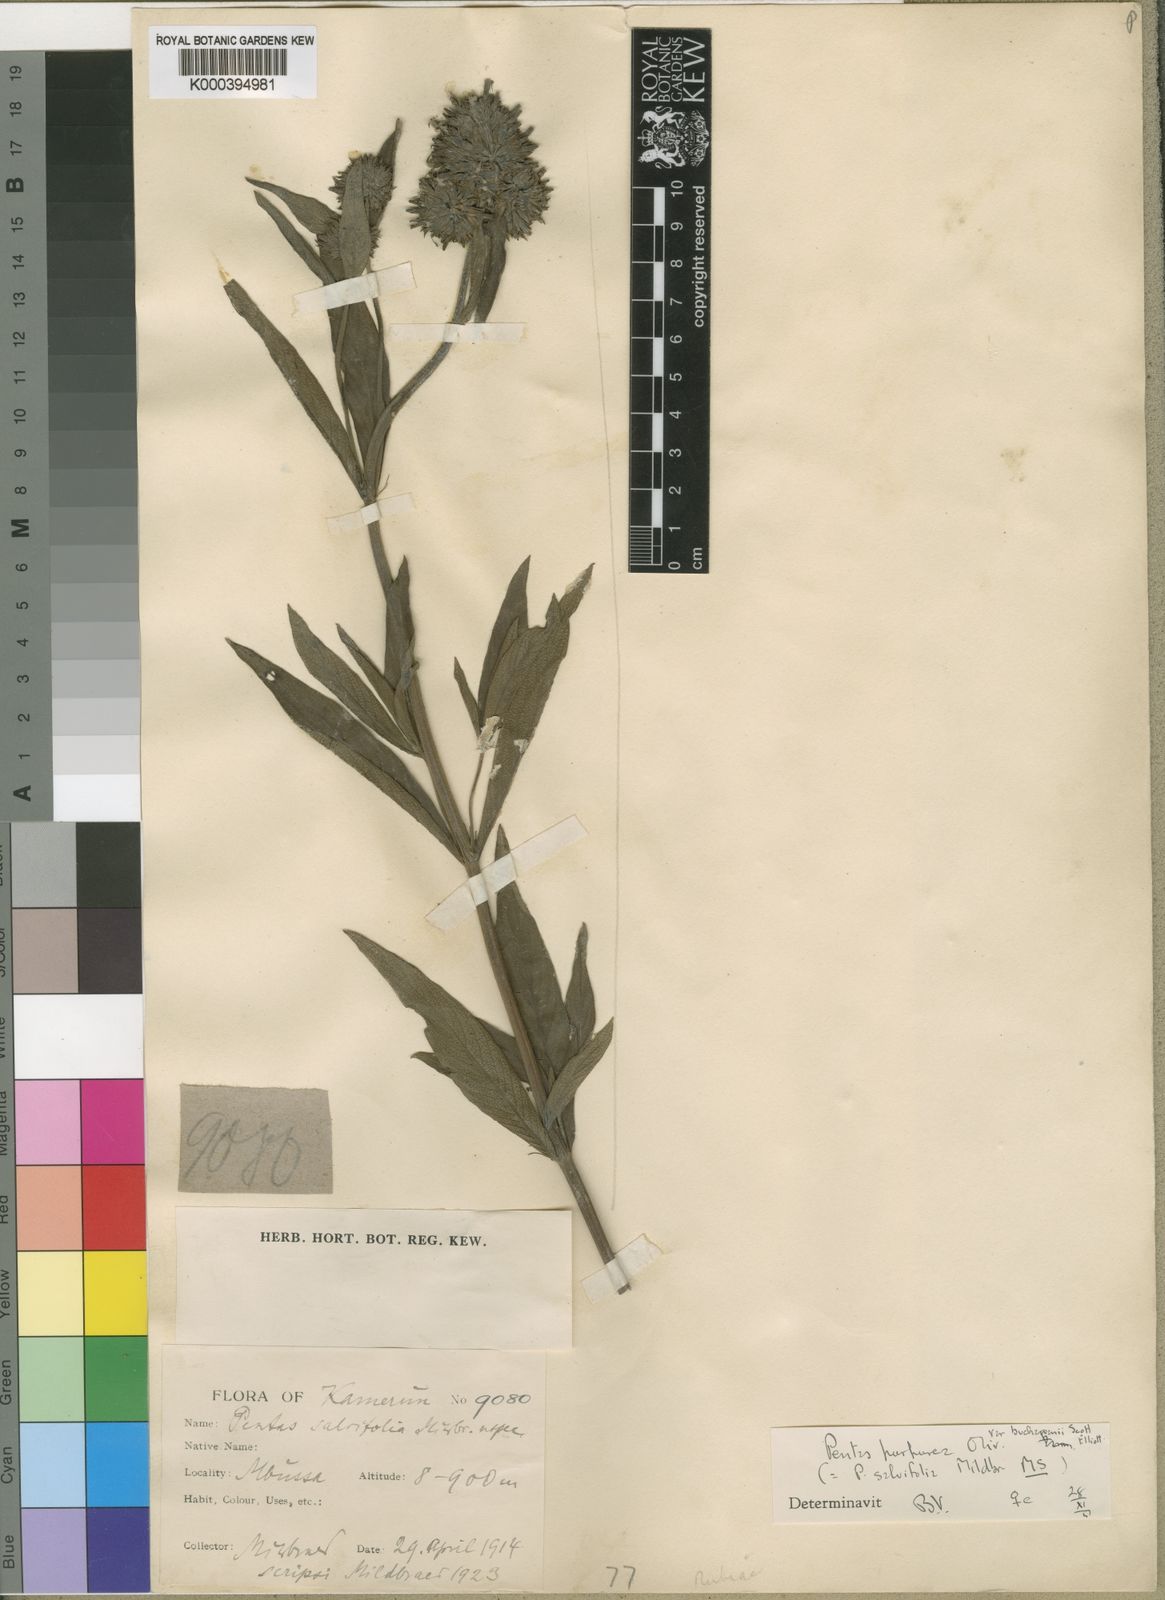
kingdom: Plantae
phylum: Tracheophyta
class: Magnoliopsida
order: Gentianales
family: Rubiaceae
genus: Pentas
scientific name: Pentas purpurea
